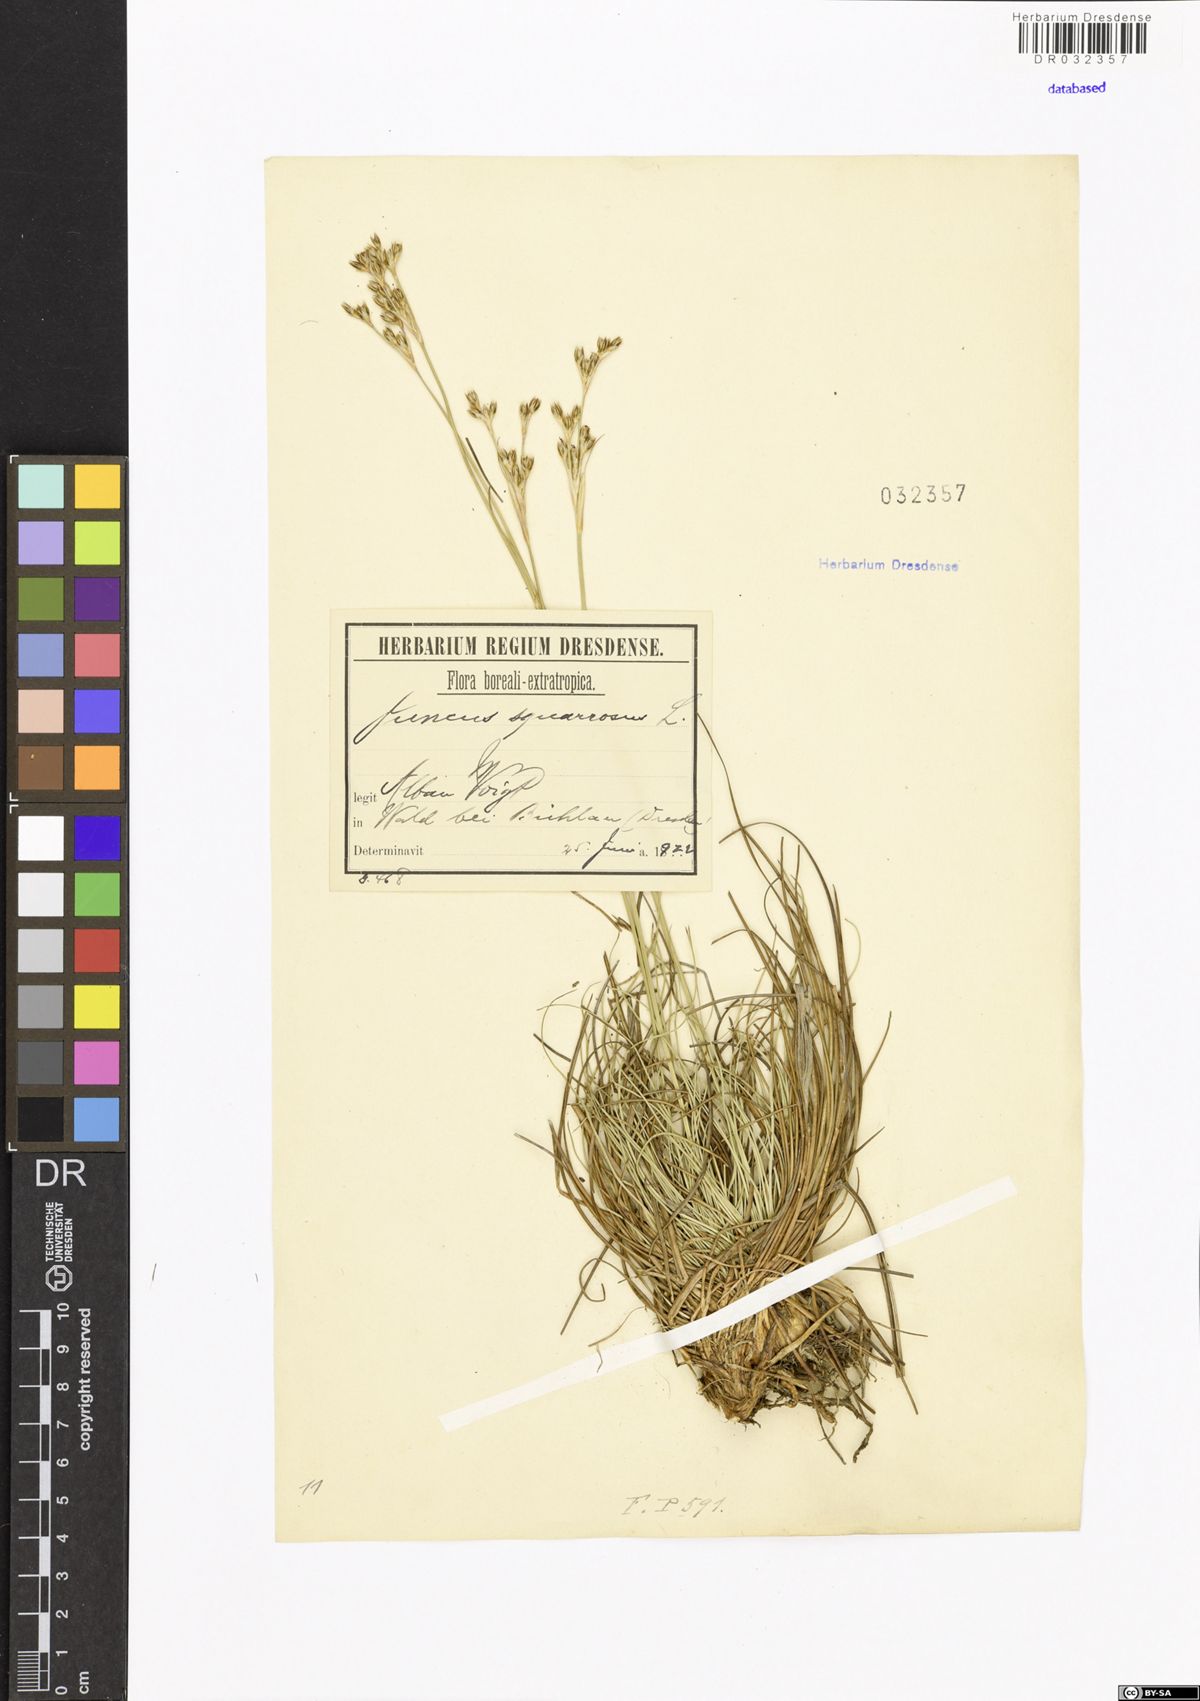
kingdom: Plantae
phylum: Tracheophyta
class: Liliopsida
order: Poales
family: Juncaceae
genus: Juncus
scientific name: Juncus squarrosus
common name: Heath rush
